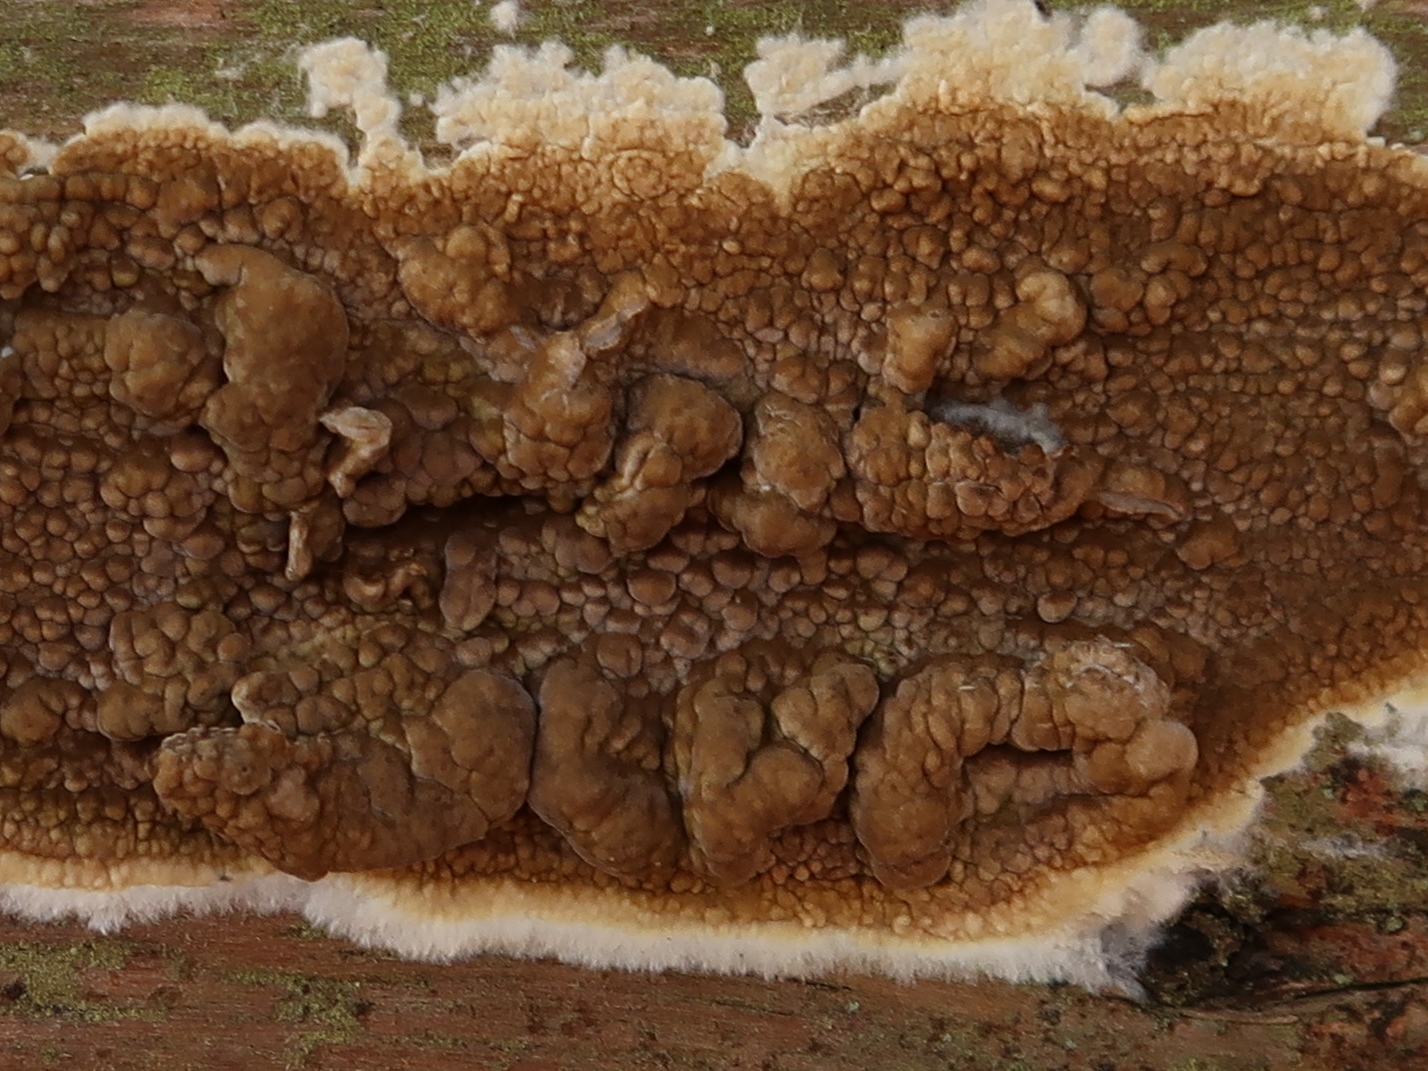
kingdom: Fungi
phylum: Basidiomycota
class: Agaricomycetes
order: Boletales
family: Coniophoraceae
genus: Coniophora
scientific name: Coniophora puteana
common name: gul tømmersvamp
